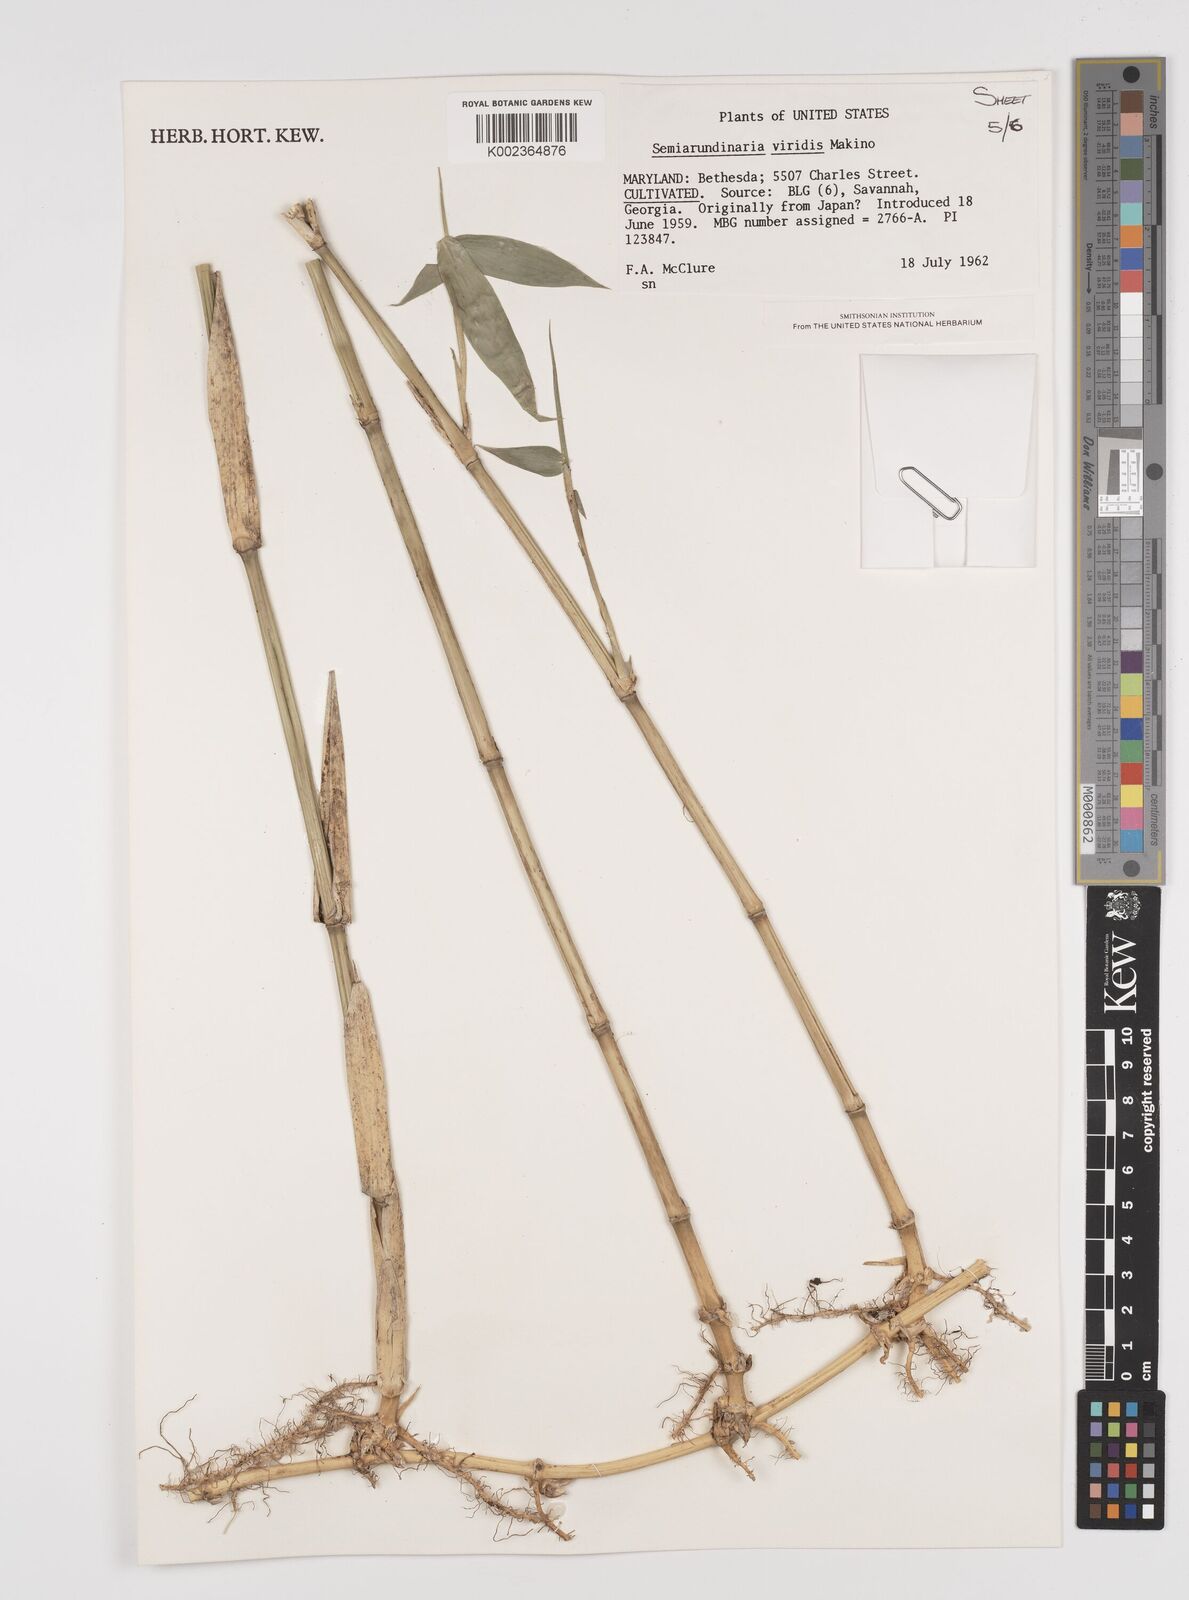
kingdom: Plantae
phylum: Tracheophyta
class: Liliopsida
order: Poales
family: Poaceae
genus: Semiarundinaria
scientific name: Semiarundinaria fastuosa
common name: Narihira bamboo
